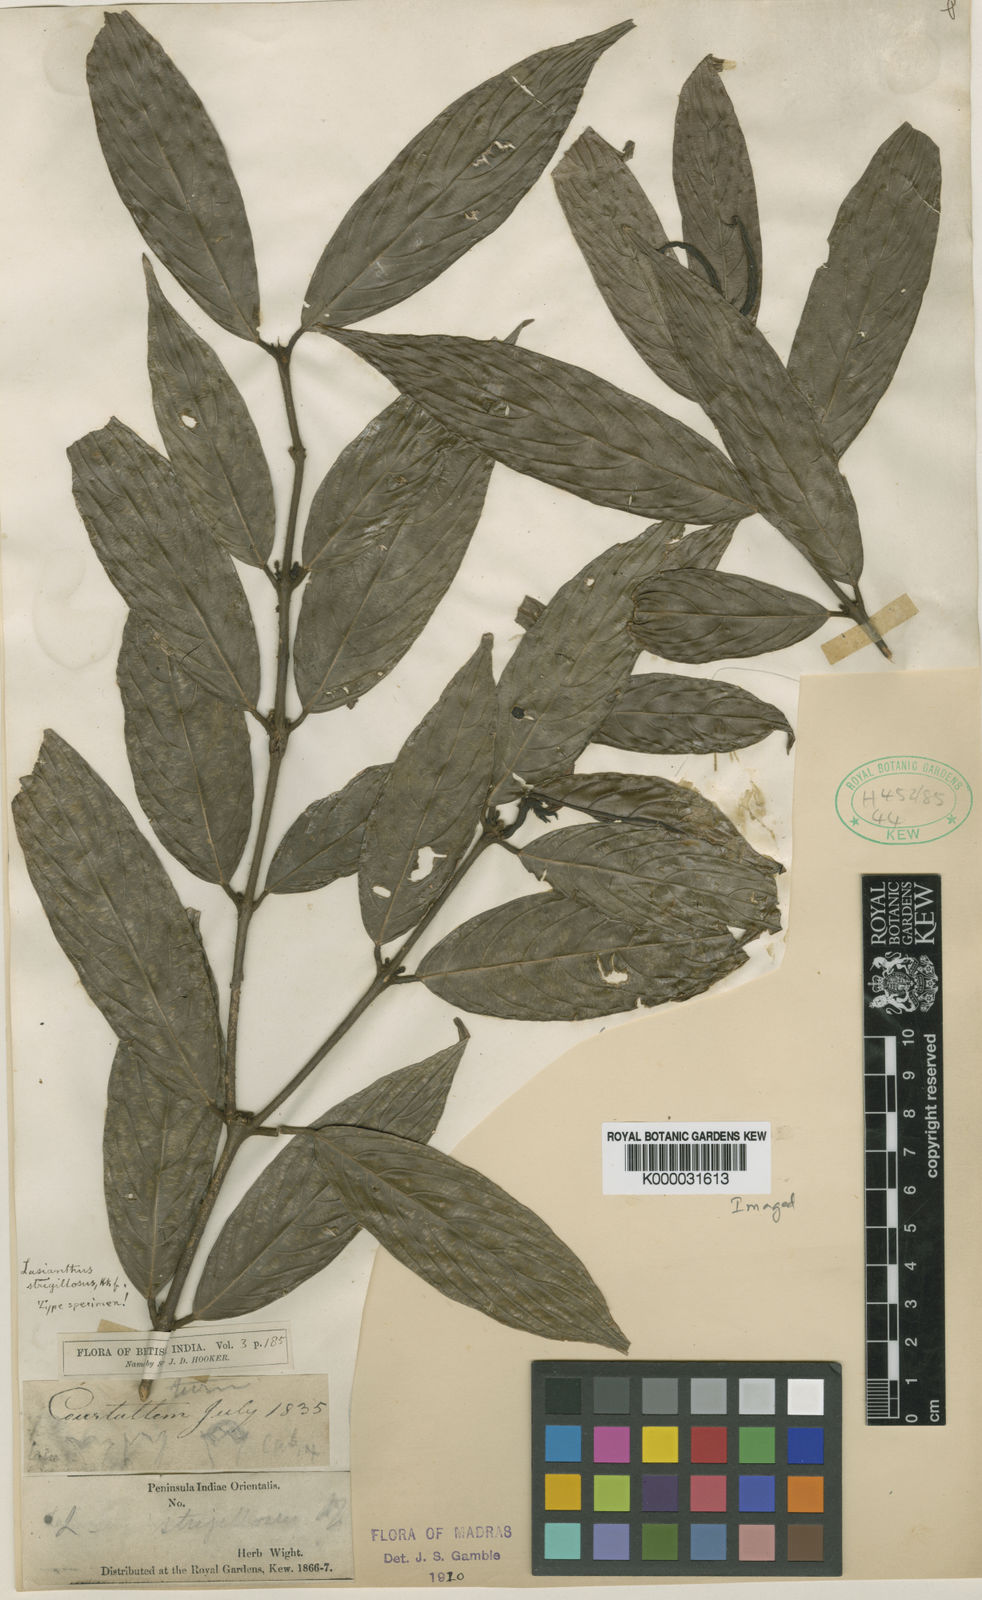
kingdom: Plantae
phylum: Tracheophyta
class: Magnoliopsida
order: Gentianales
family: Rubiaceae
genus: Lasianthus
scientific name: Lasianthus strigillosus
